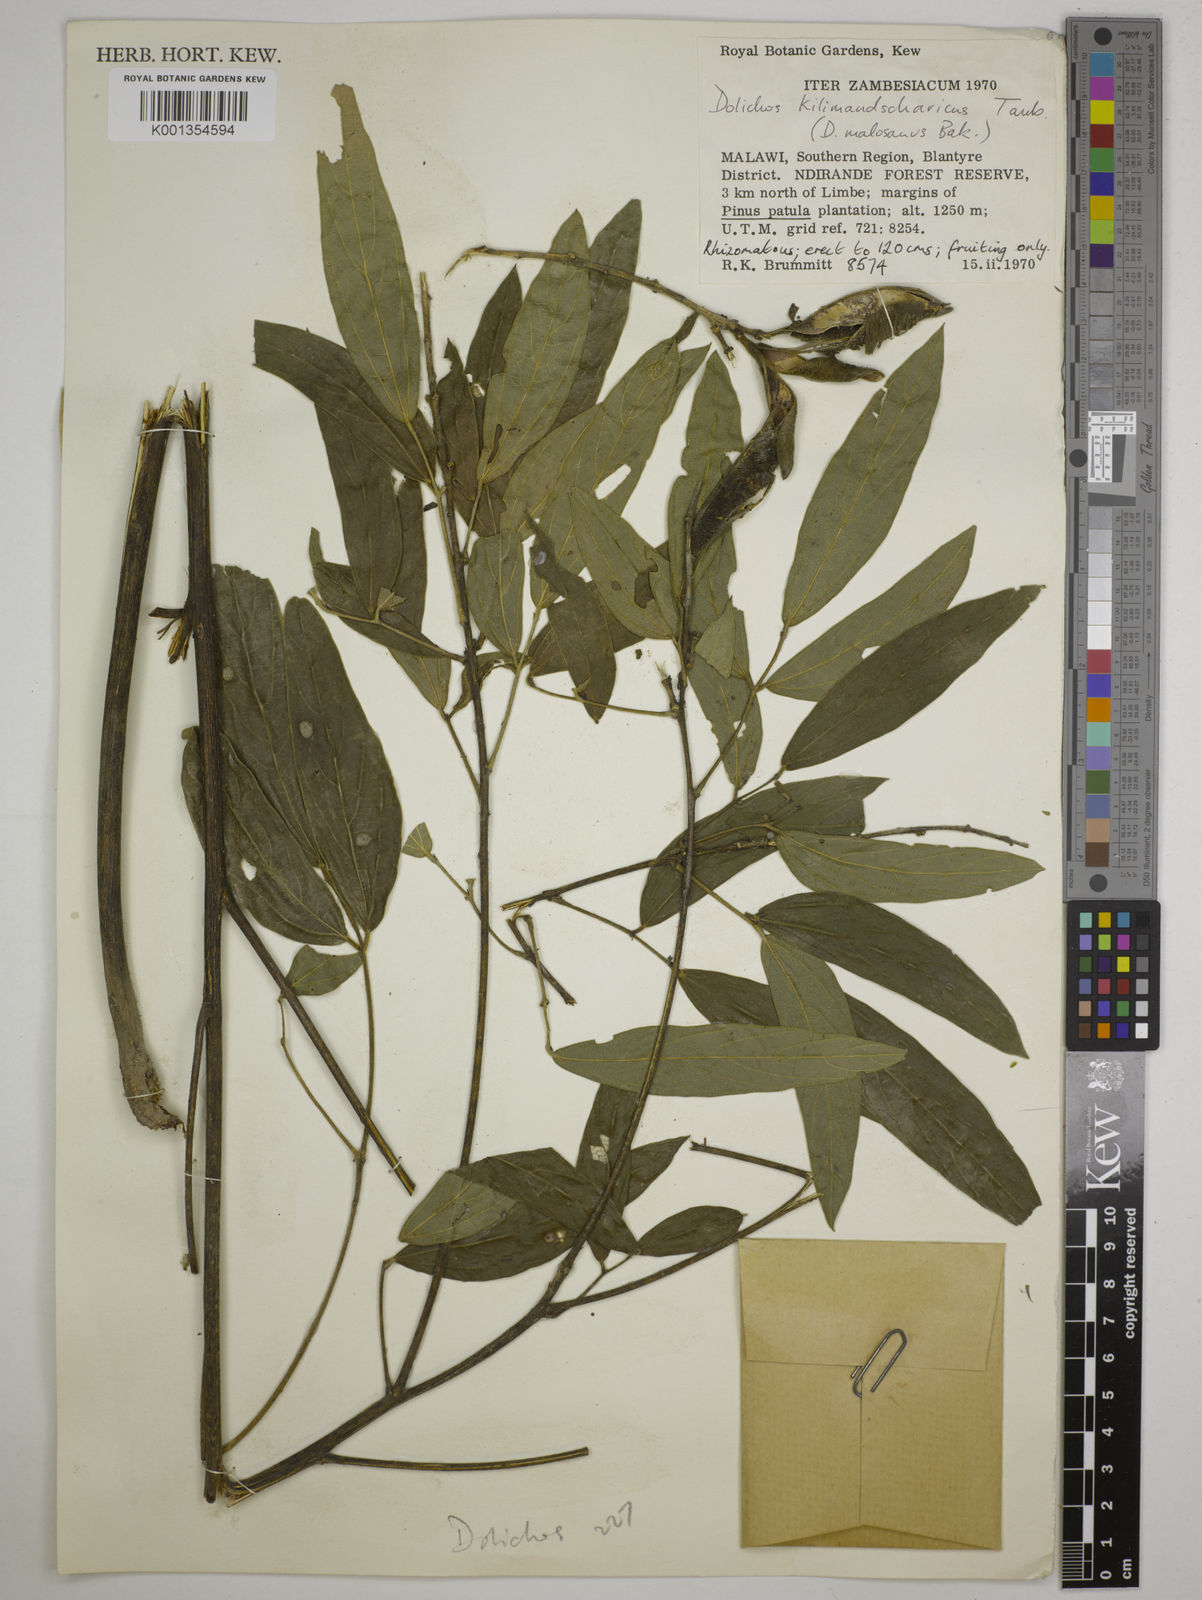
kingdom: Plantae
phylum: Tracheophyta
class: Magnoliopsida
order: Fabales
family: Fabaceae
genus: Dolichos
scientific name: Dolichos kilimandscharicus
